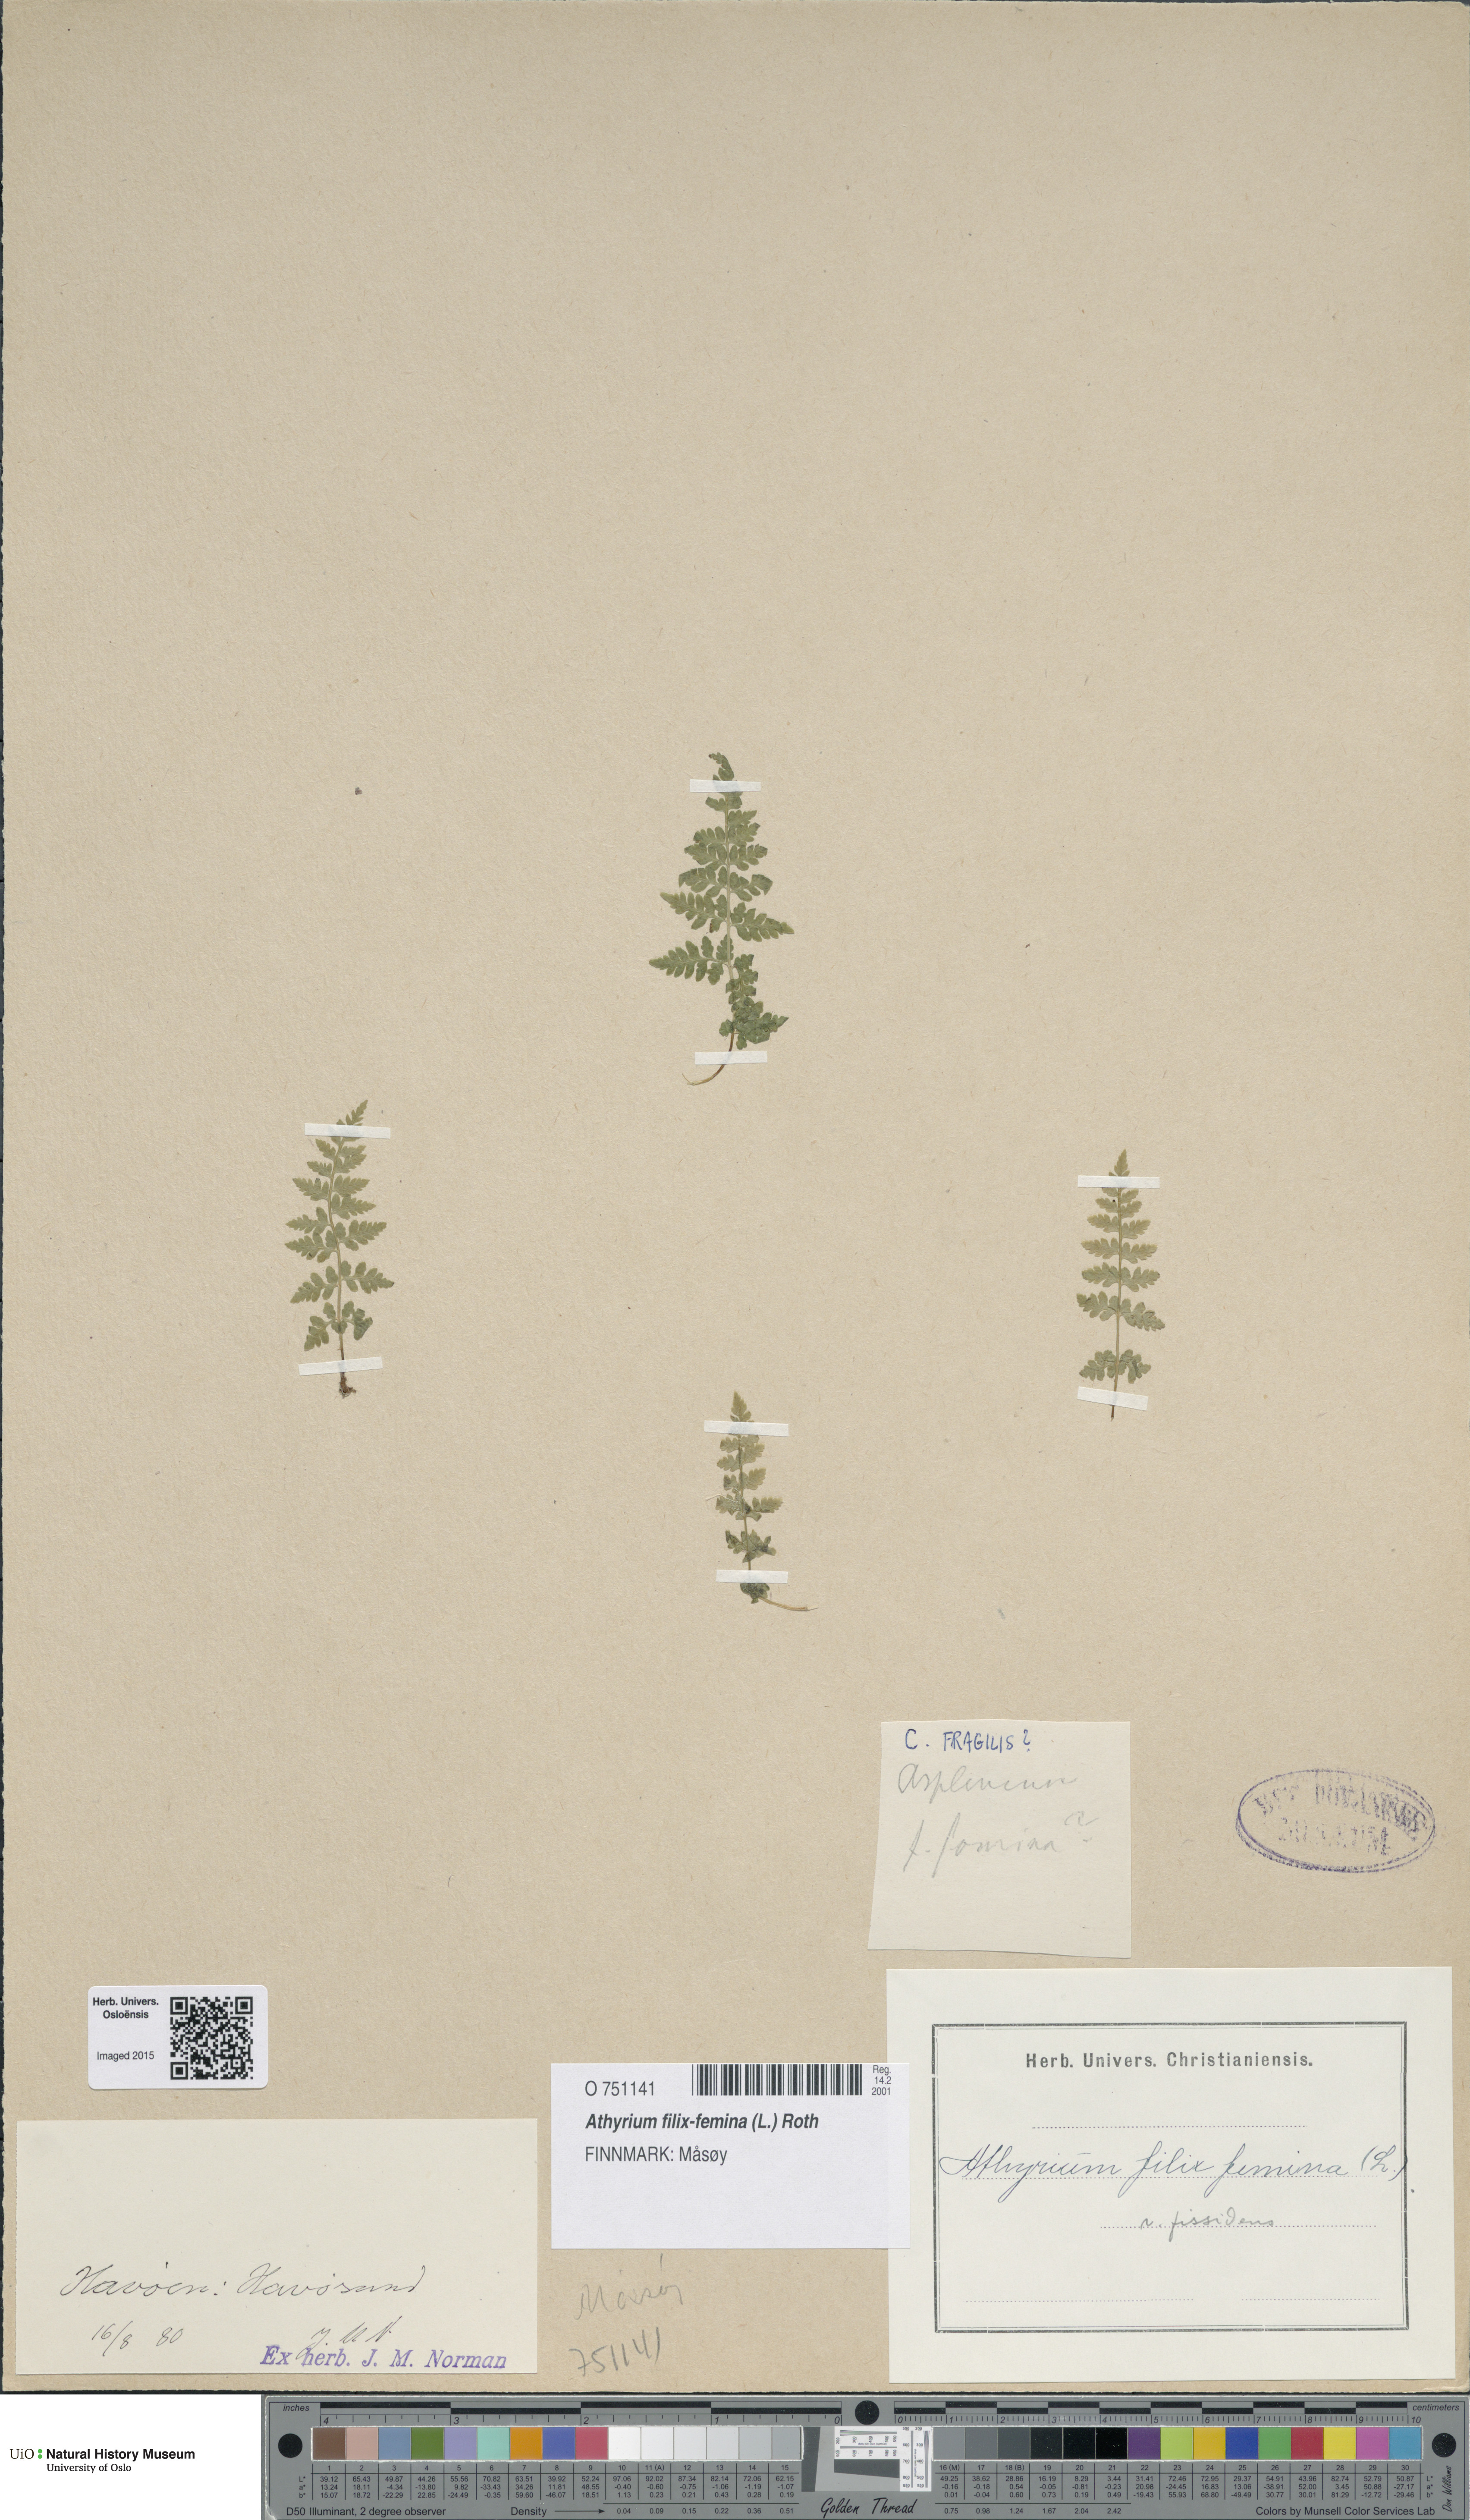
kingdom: Plantae
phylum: Tracheophyta
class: Polypodiopsida
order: Polypodiales
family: Athyriaceae
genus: Athyrium
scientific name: Athyrium filix-femina
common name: Lady fern
